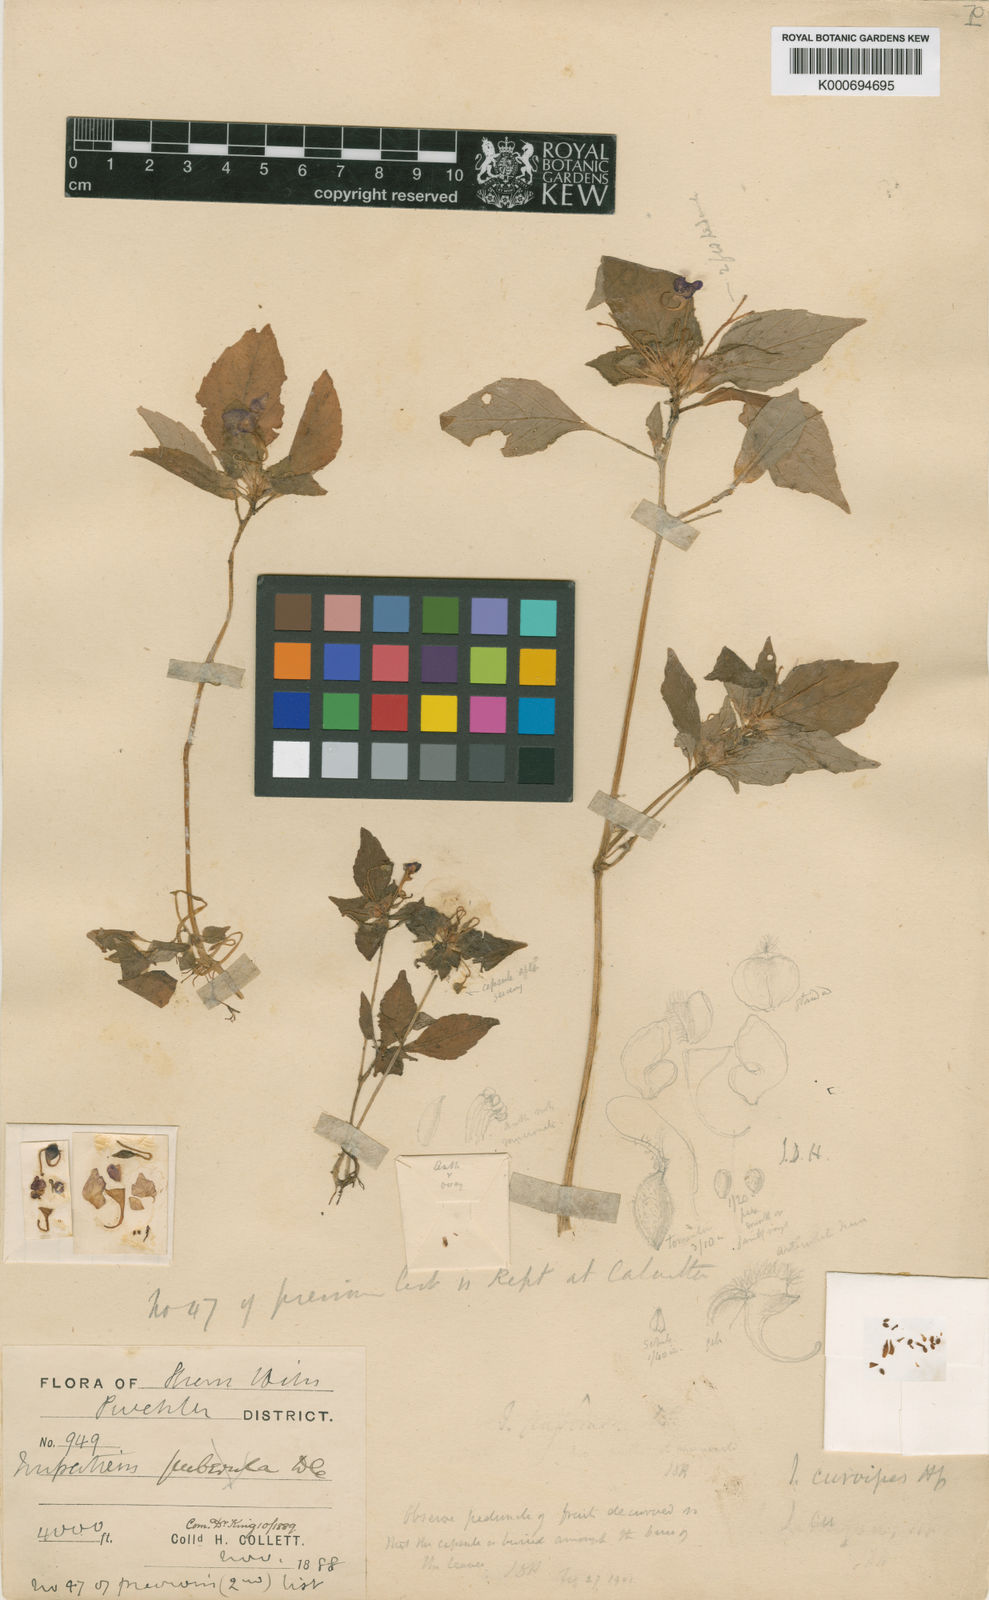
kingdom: Plantae
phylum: Tracheophyta
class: Magnoliopsida
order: Ericales
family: Balsaminaceae
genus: Impatiens
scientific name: Impatiens curvipes
